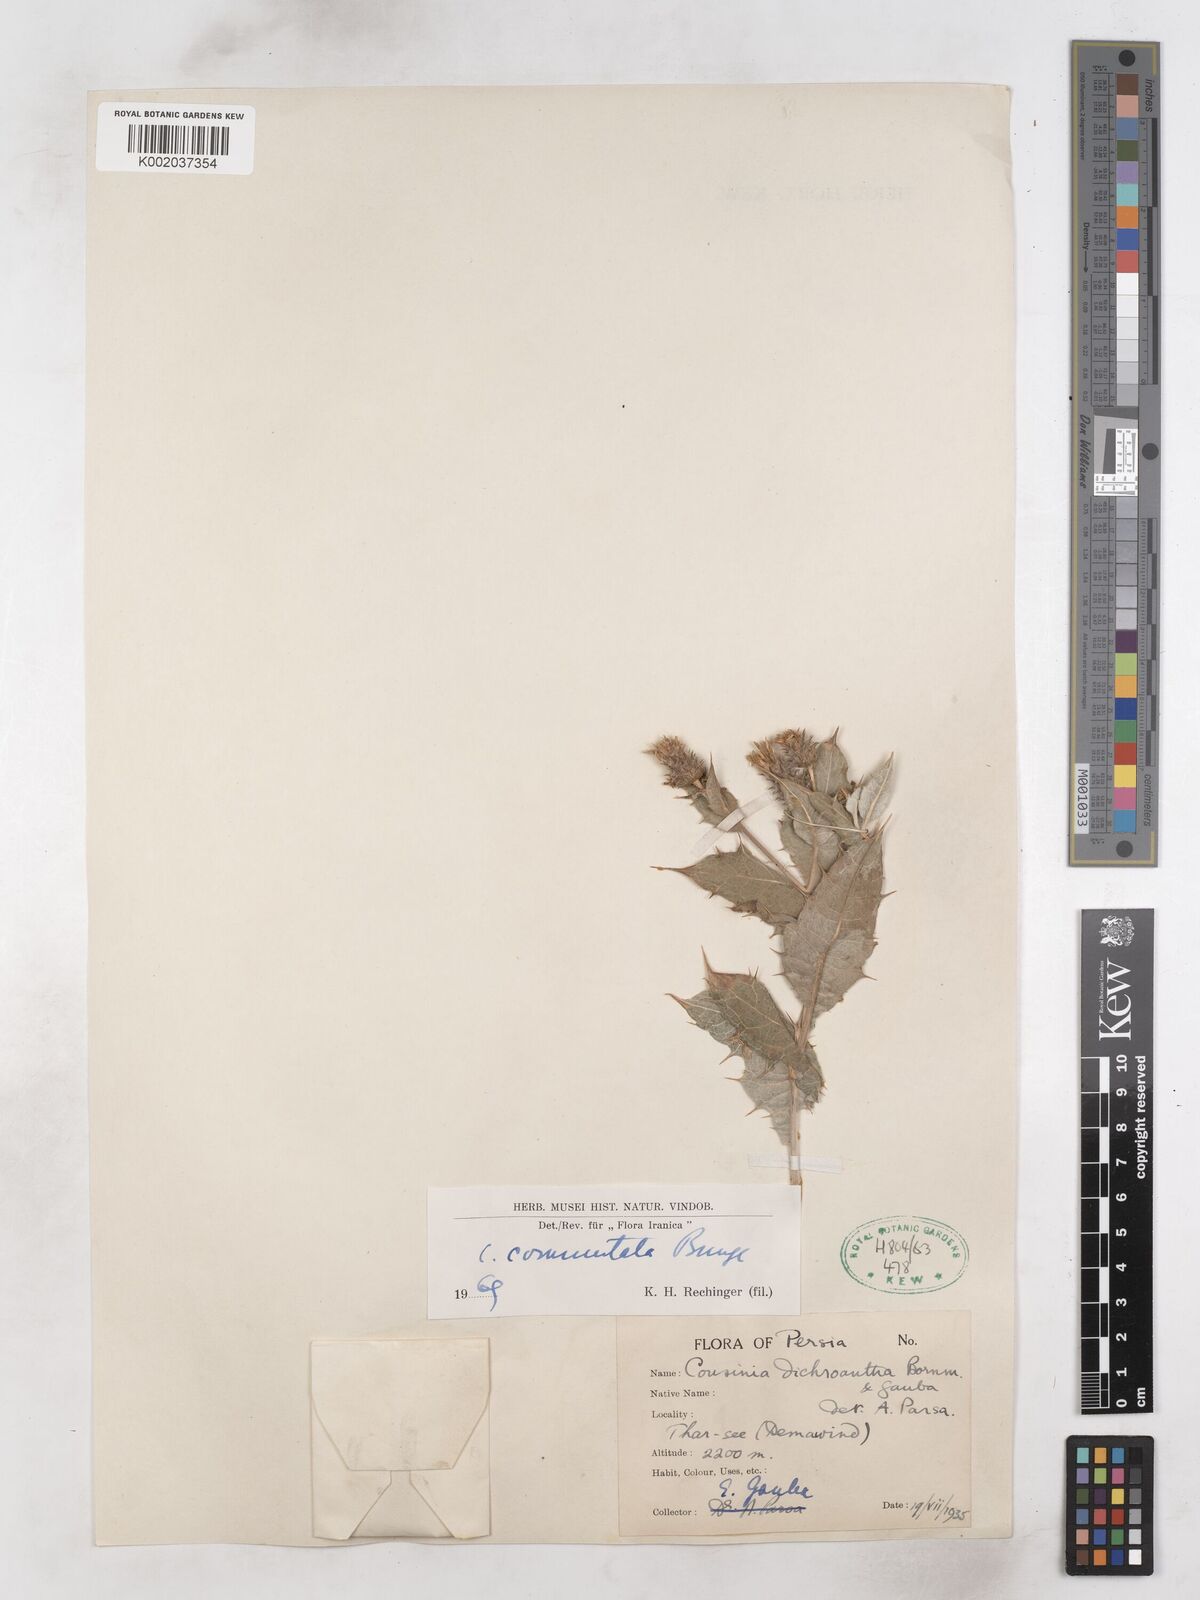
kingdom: Plantae
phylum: Tracheophyta
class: Magnoliopsida
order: Asterales
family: Asteraceae
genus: Cousinia
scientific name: Cousinia commutata
